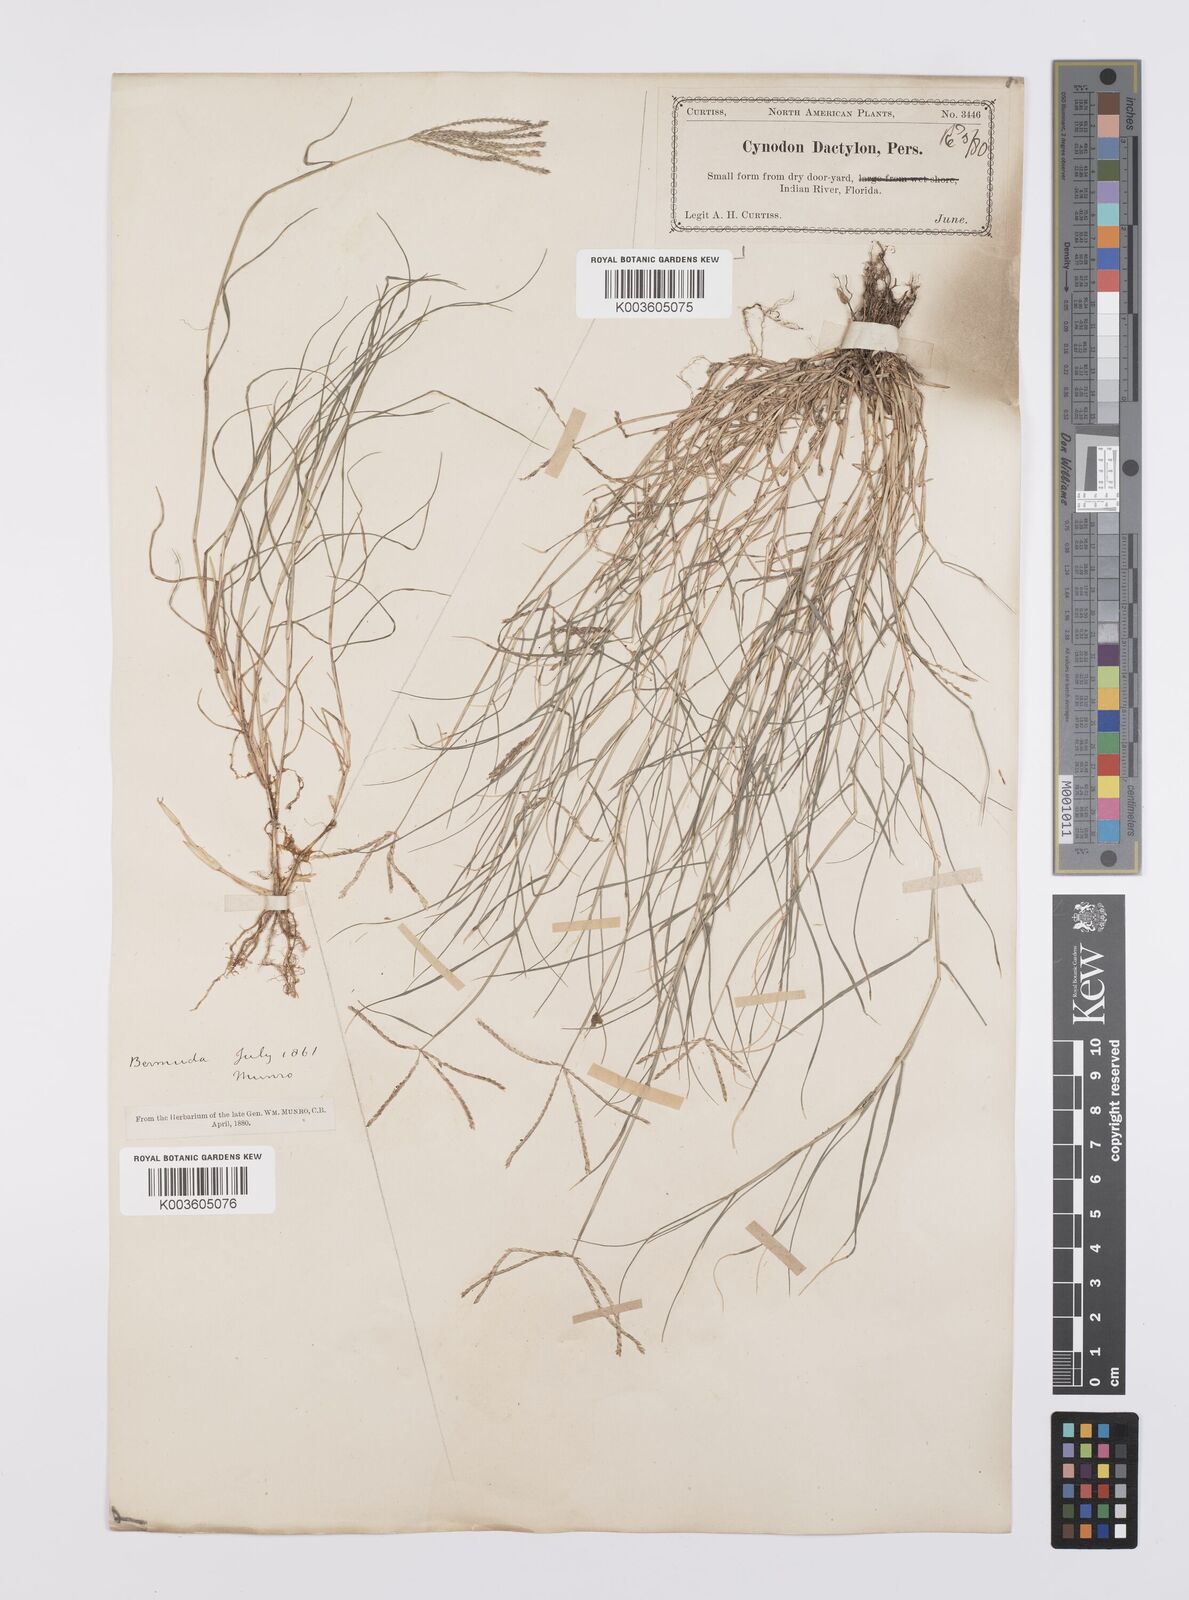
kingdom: Plantae
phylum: Tracheophyta
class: Liliopsida
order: Poales
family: Poaceae
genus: Cynodon
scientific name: Cynodon dactylon
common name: Bermuda grass
